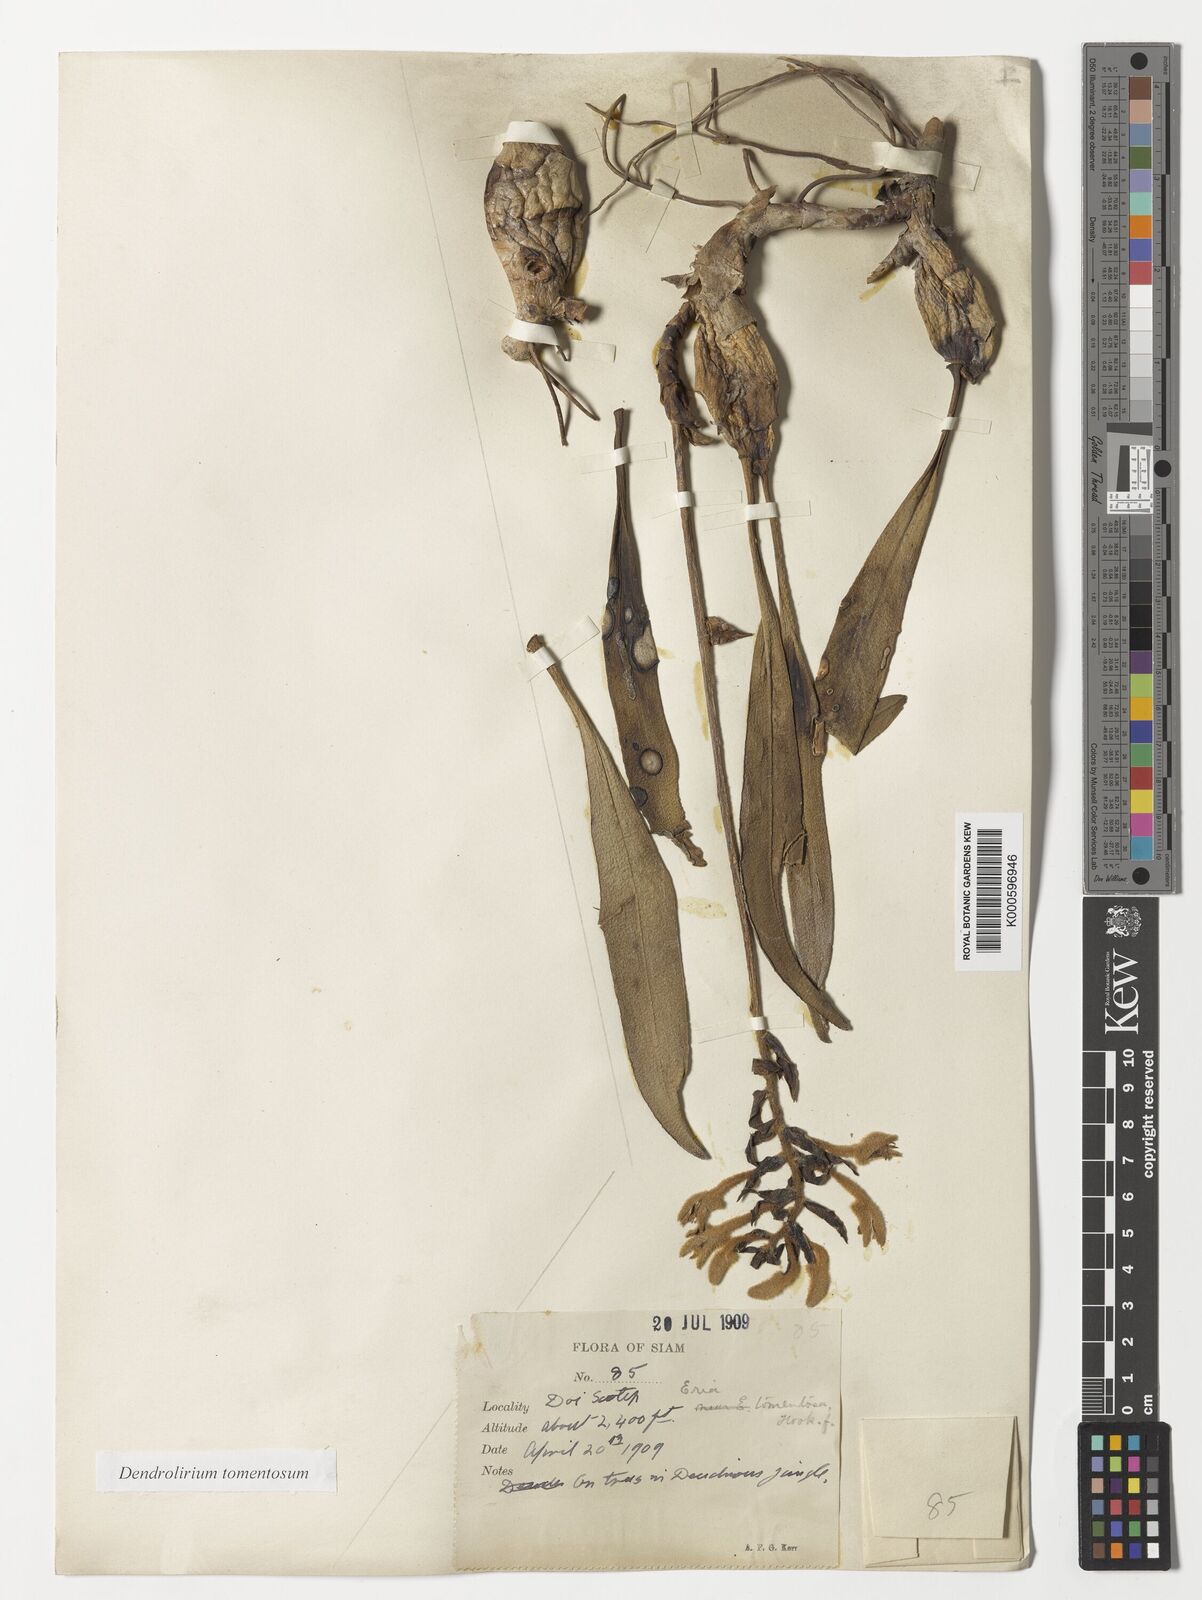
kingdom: Plantae
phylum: Tracheophyta
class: Liliopsida
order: Asparagales
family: Orchidaceae
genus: Dendrolirium
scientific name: Dendrolirium tomentosum
